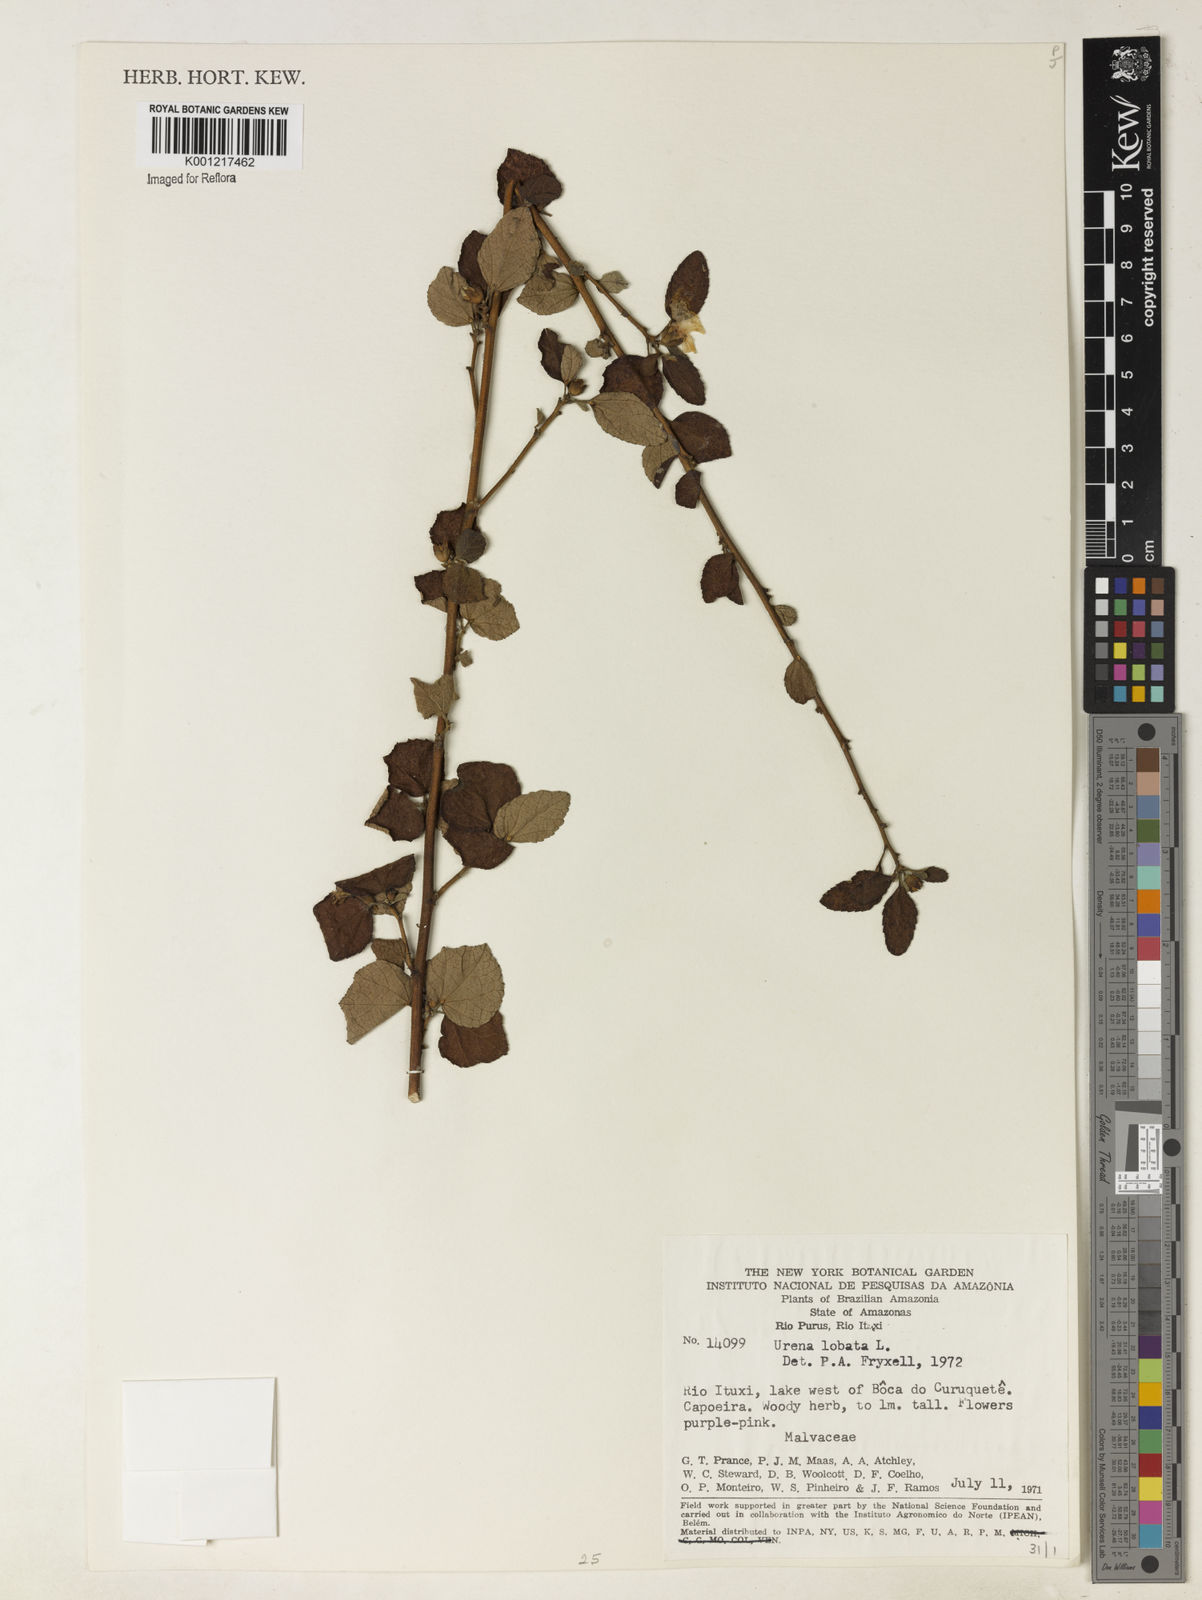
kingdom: Plantae
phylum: Tracheophyta
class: Magnoliopsida
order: Malvales
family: Malvaceae
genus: Urena
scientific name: Urena lobata
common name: Caesarweed
